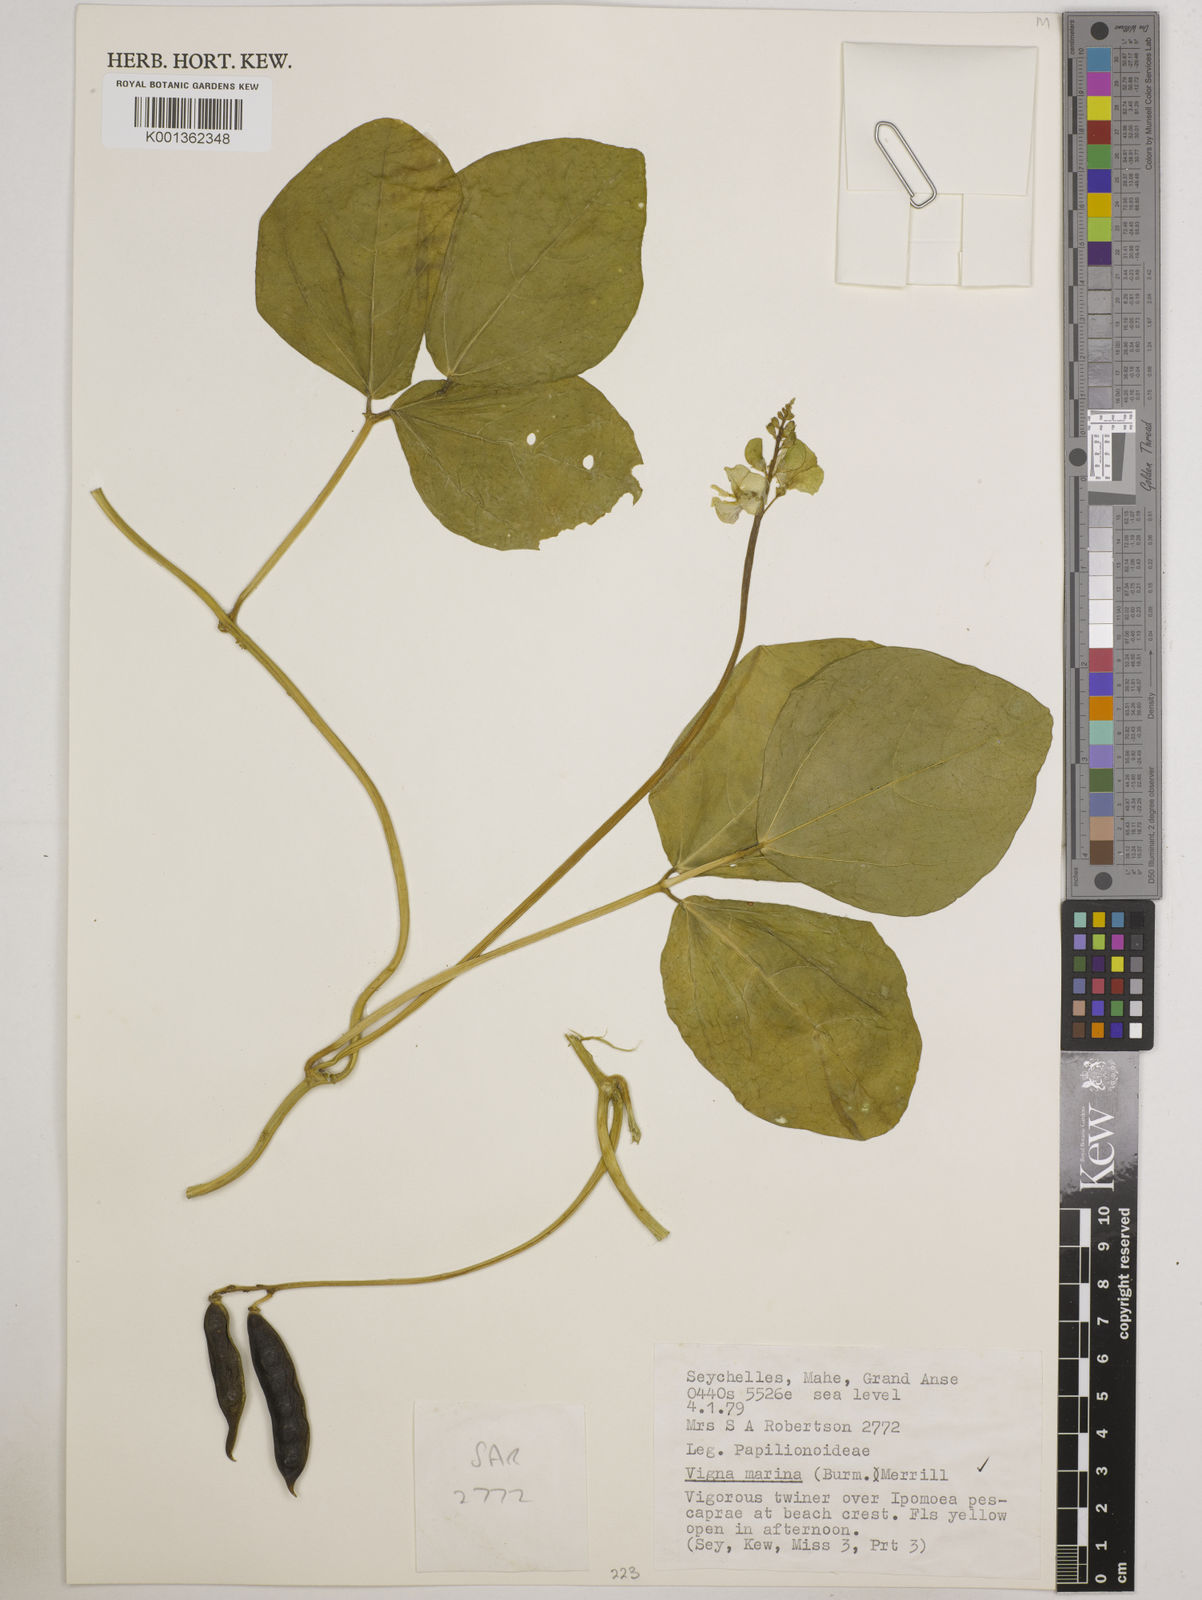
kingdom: Plantae
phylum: Tracheophyta
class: Magnoliopsida
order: Fabales
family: Fabaceae
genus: Vigna
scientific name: Vigna marina
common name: Dune-bean
